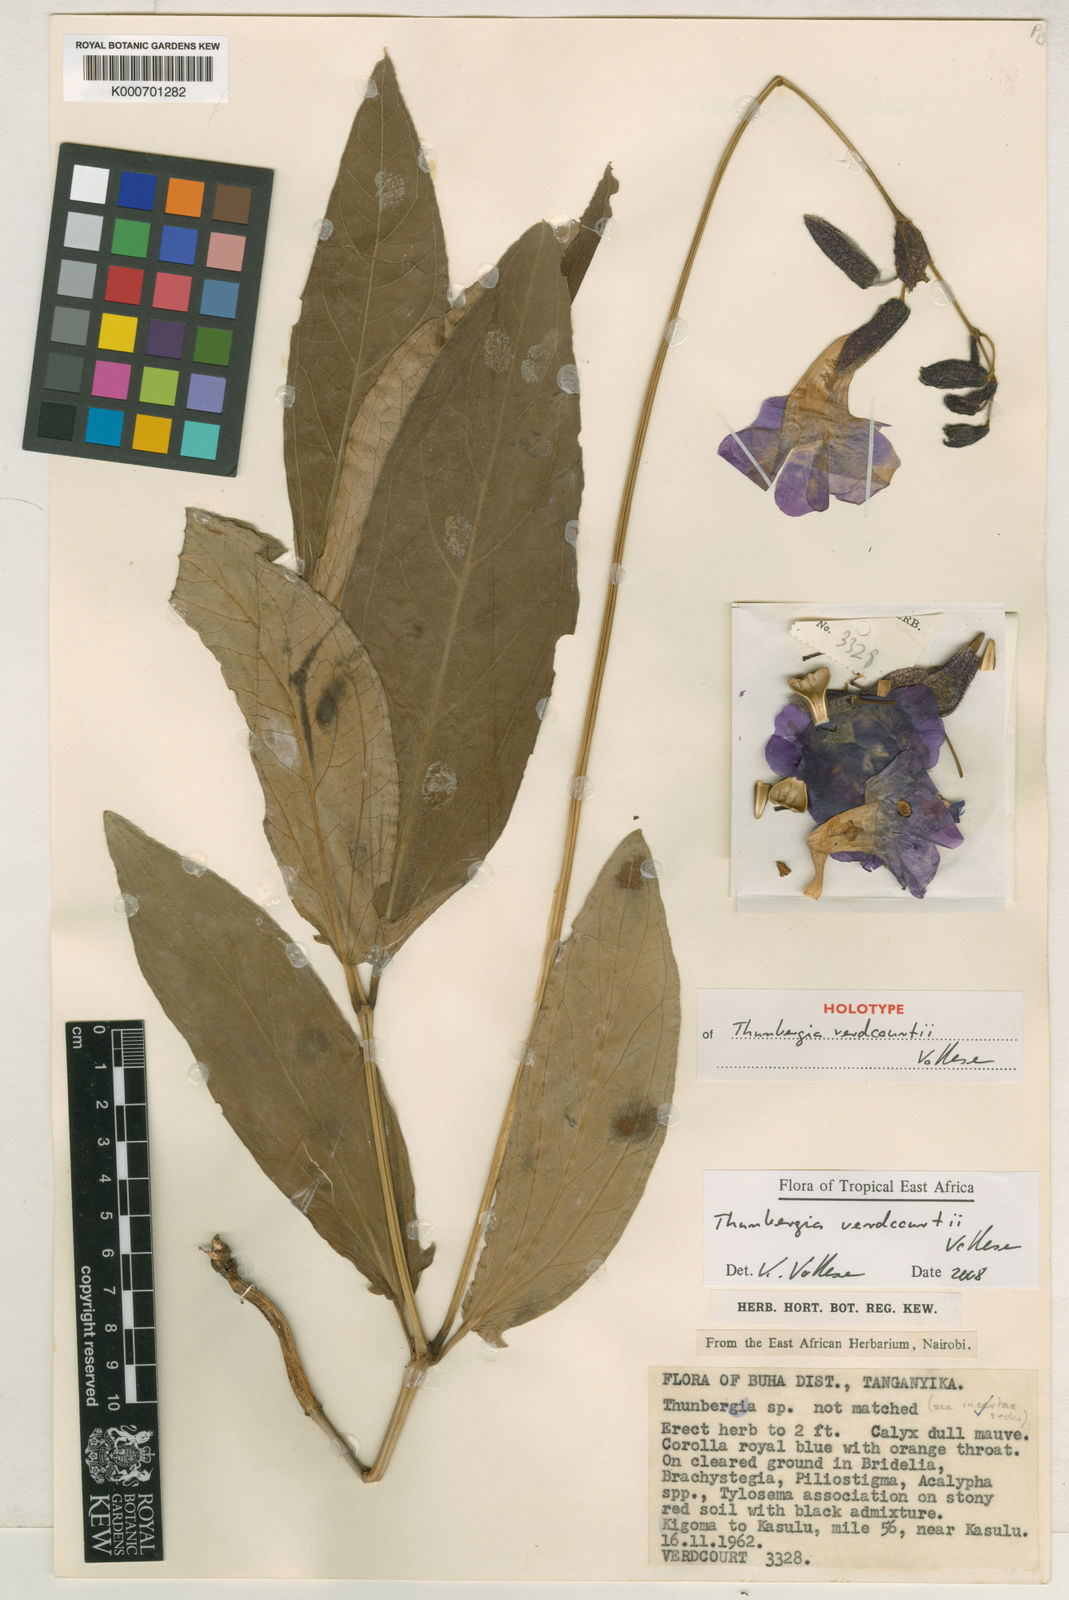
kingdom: Plantae
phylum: Tracheophyta
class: Magnoliopsida
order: Lamiales
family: Acanthaceae
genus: Thunbergia
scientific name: Thunbergia verdcourtii
